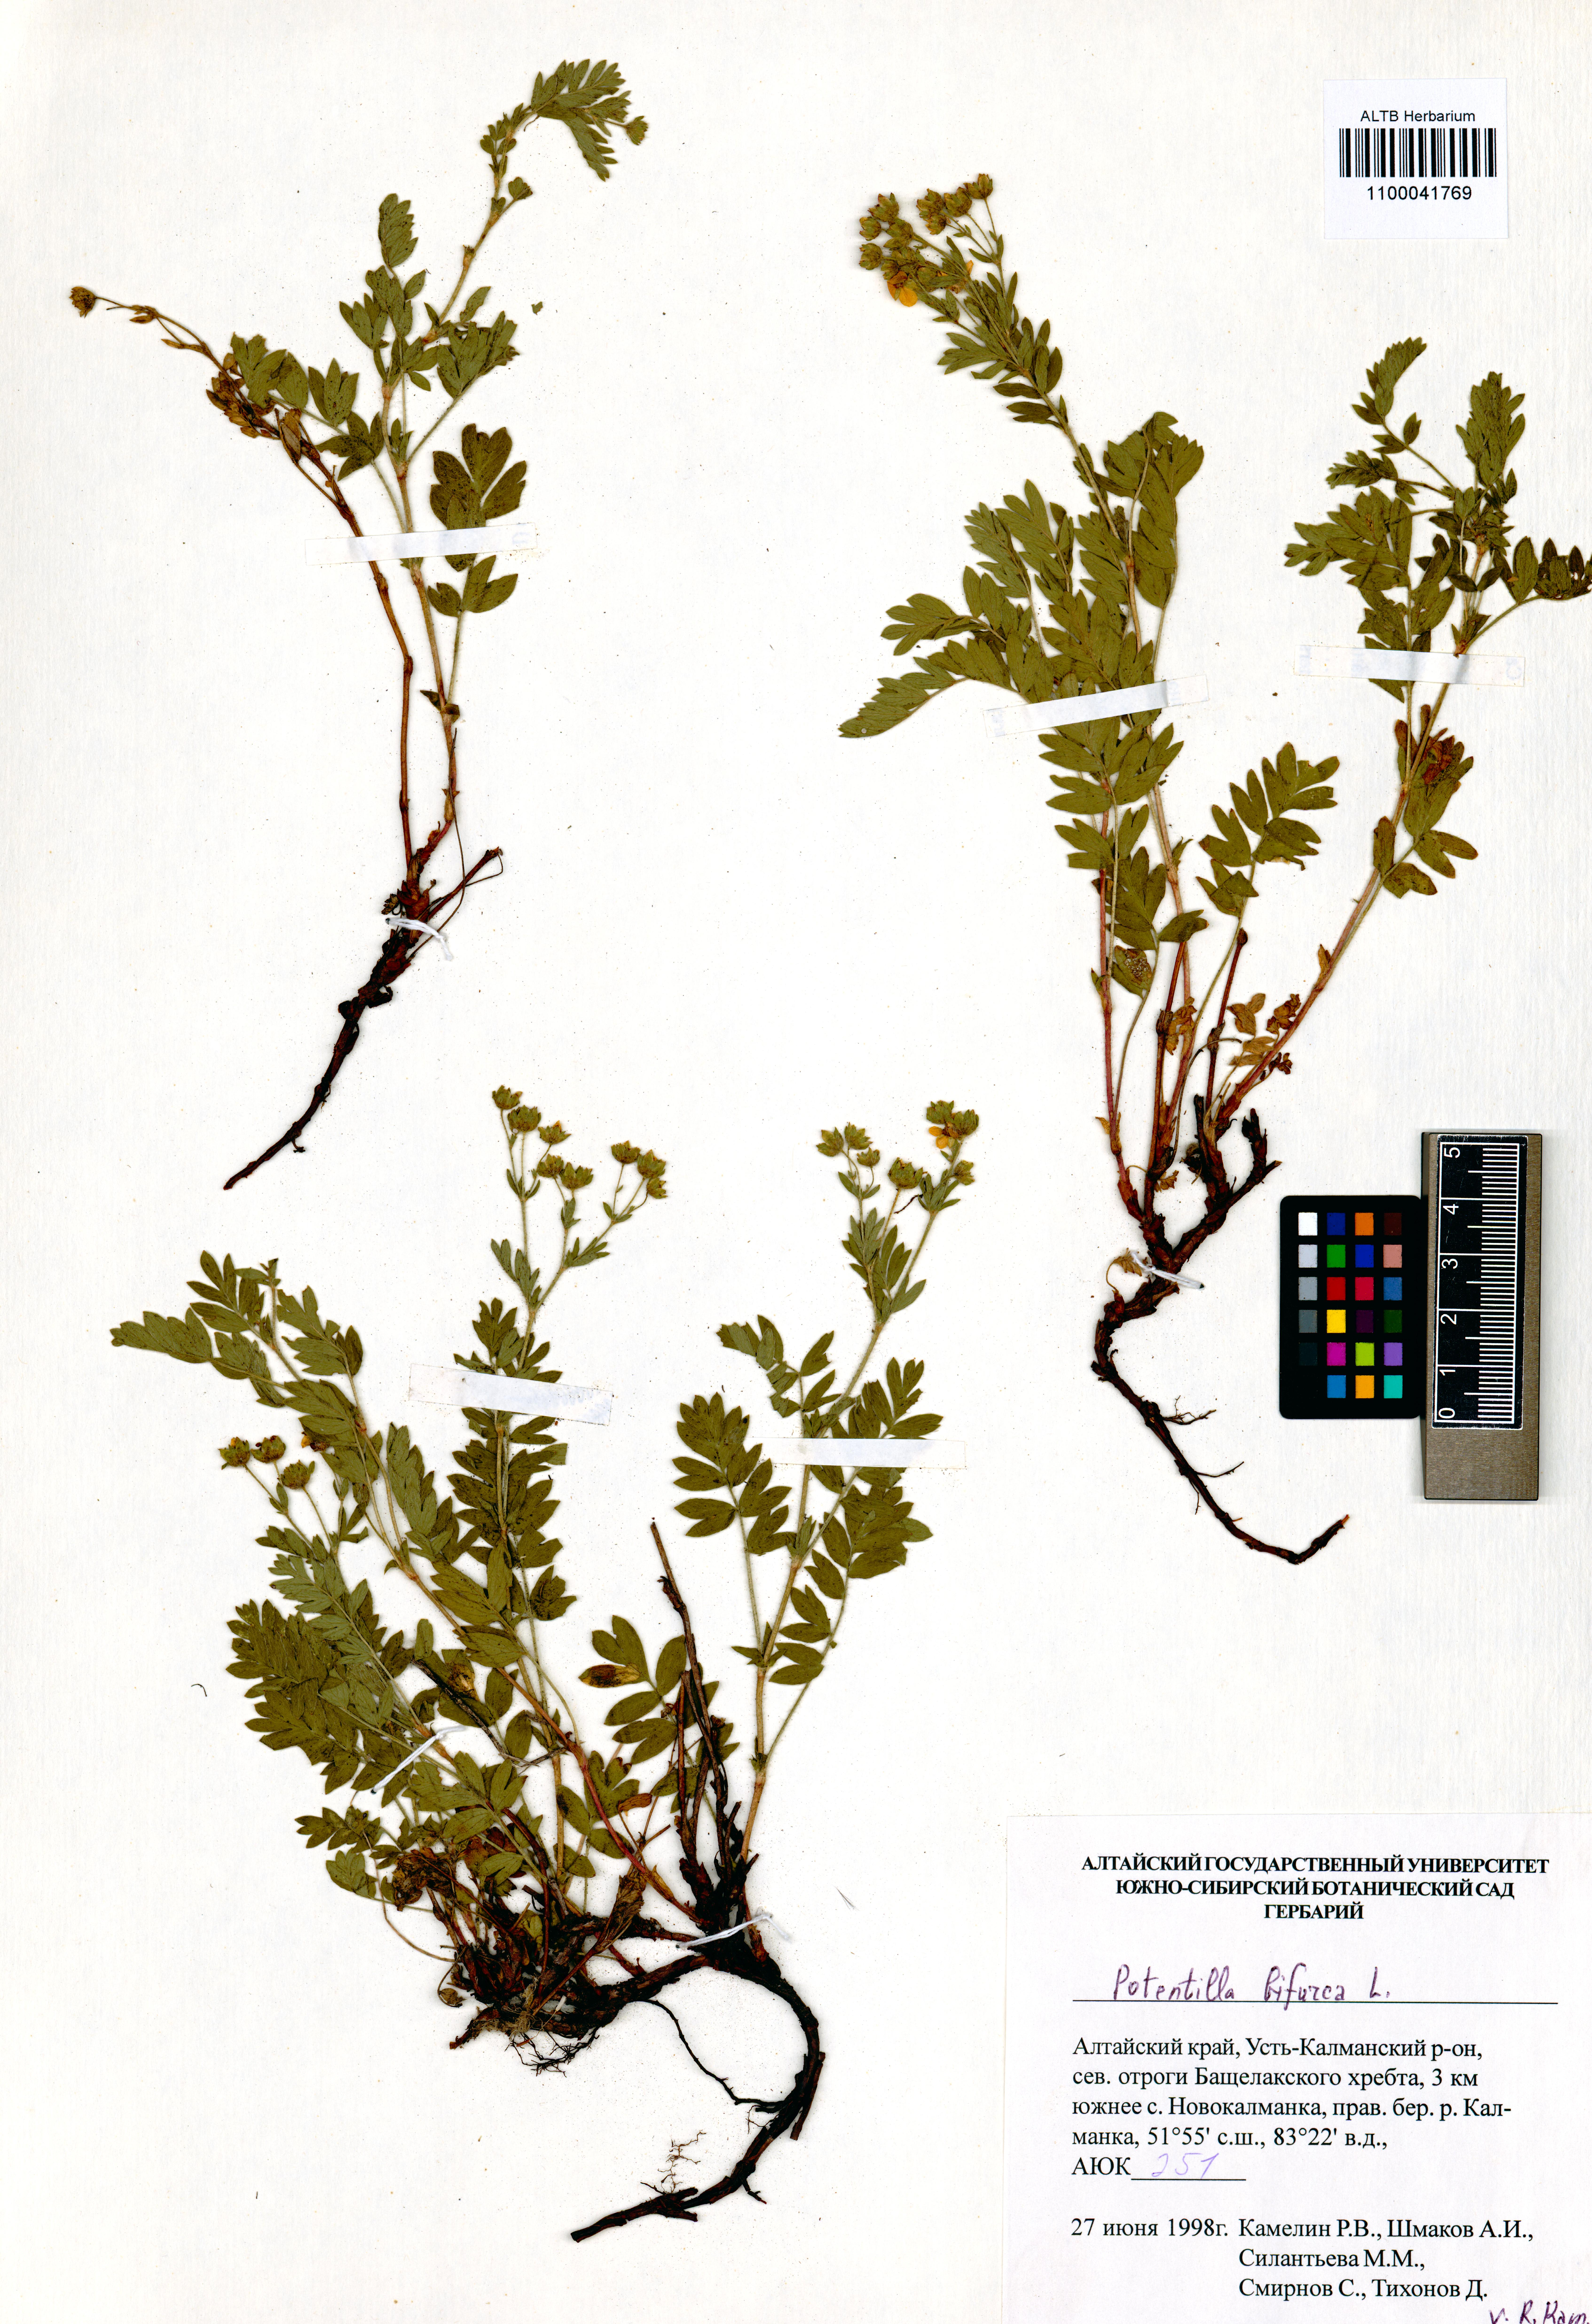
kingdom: Plantae
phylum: Tracheophyta
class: Magnoliopsida
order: Rosales
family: Rosaceae
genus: Sibbaldianthe
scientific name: Sibbaldianthe bifurca
